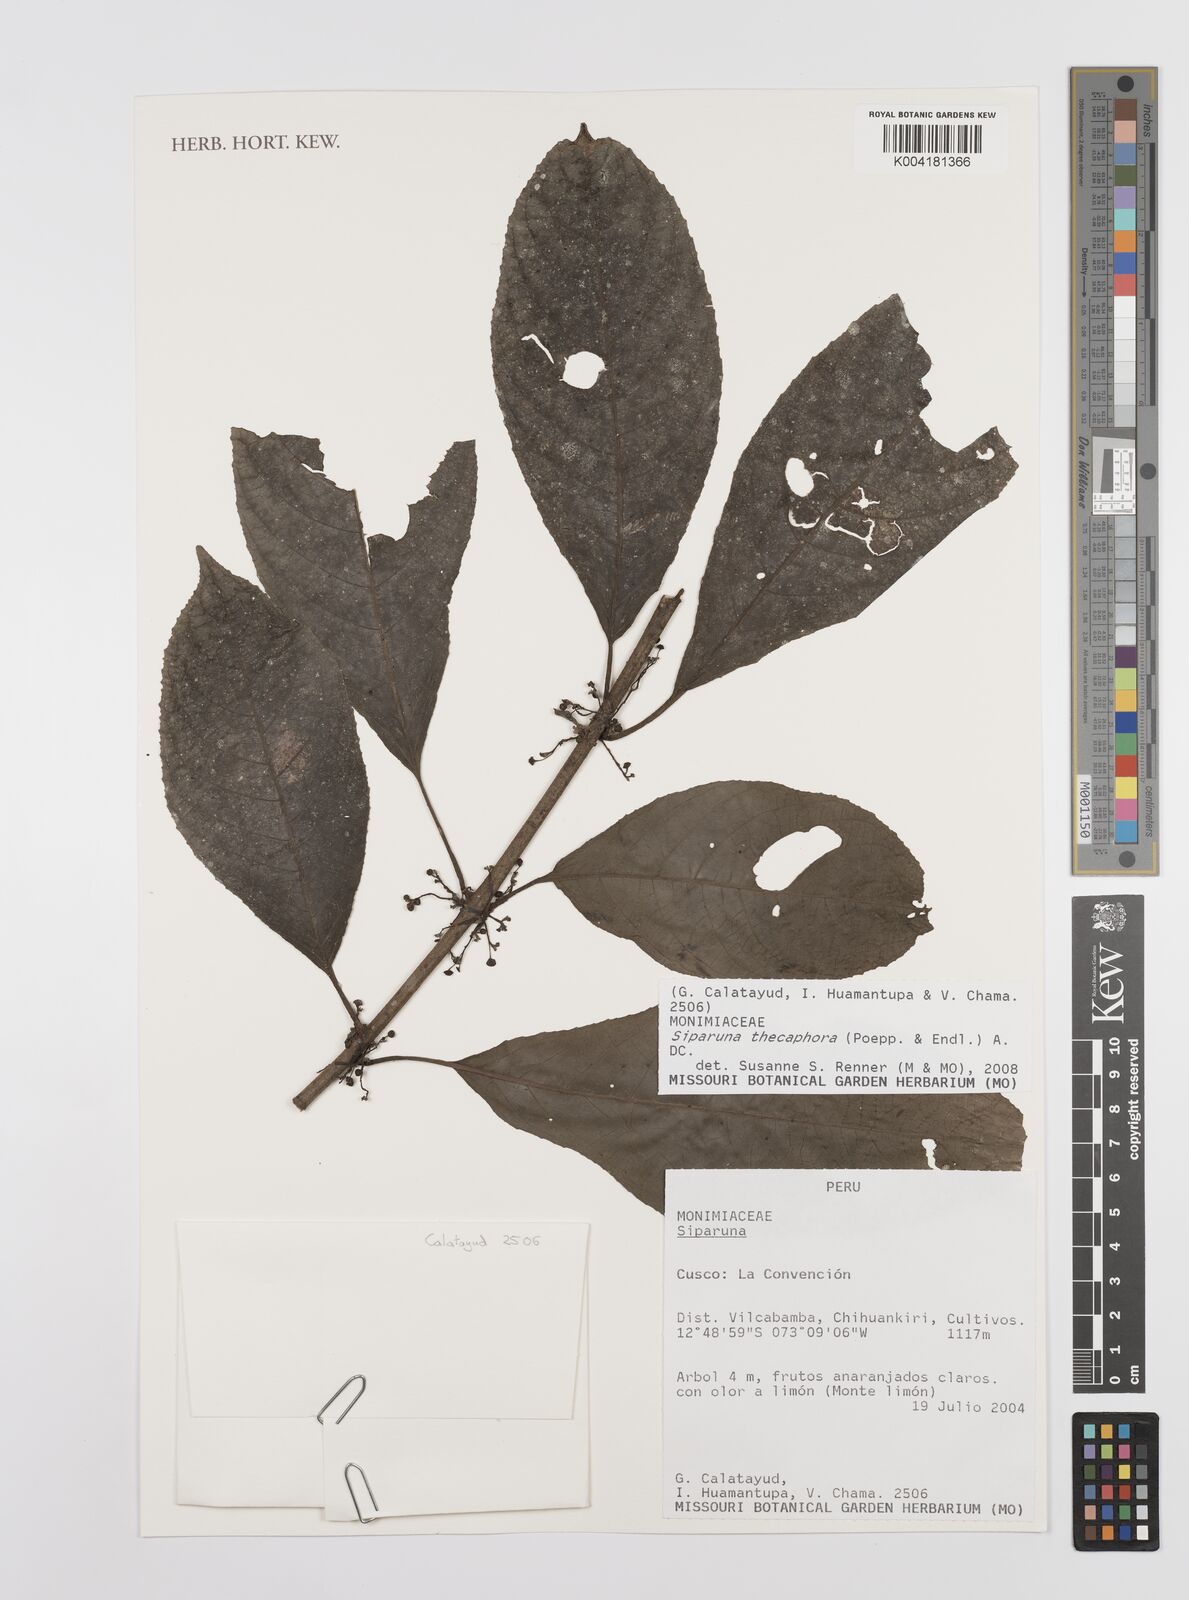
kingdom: Plantae
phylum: Tracheophyta
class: Magnoliopsida
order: Laurales
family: Siparunaceae
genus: Siparuna
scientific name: Siparuna thecaphora
